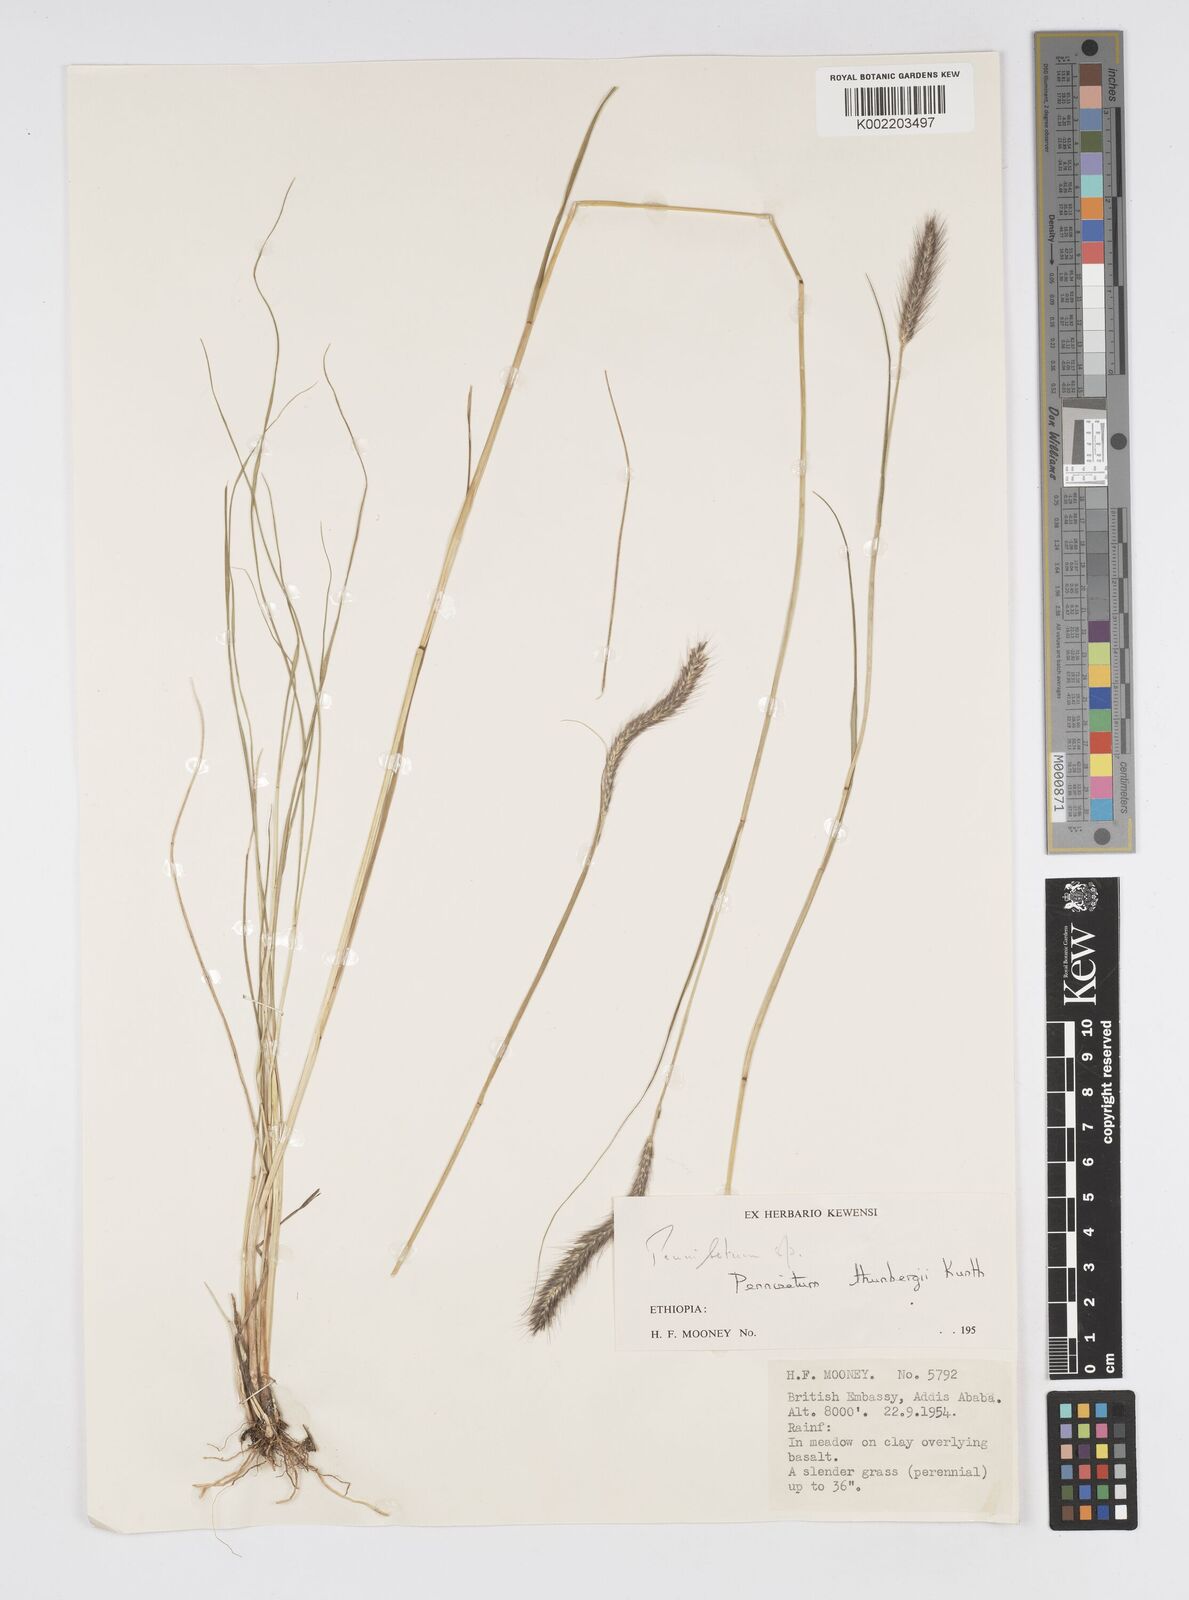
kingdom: Plantae
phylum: Tracheophyta
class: Liliopsida
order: Poales
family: Poaceae
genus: Cenchrus
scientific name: Cenchrus geniculatus
